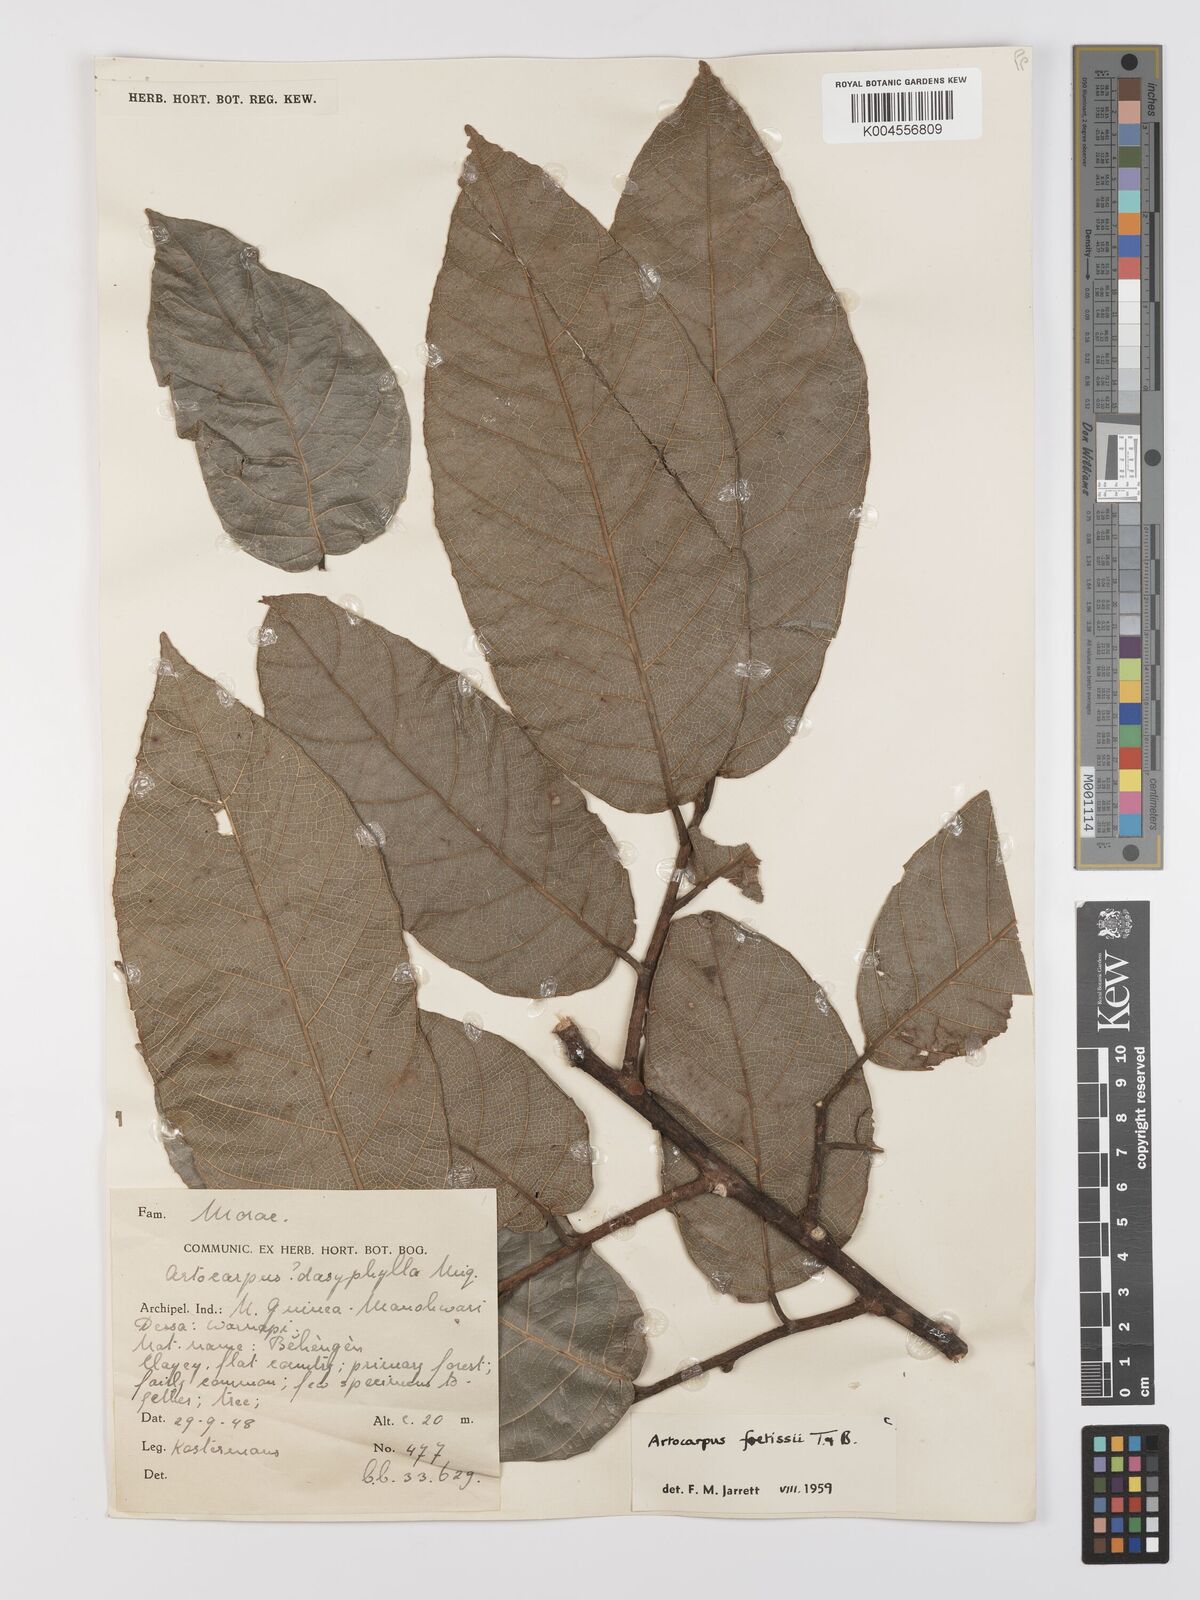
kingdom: Plantae
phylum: Tracheophyta
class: Magnoliopsida
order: Rosales
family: Moraceae
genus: Artocarpus
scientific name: Artocarpus lacucha
